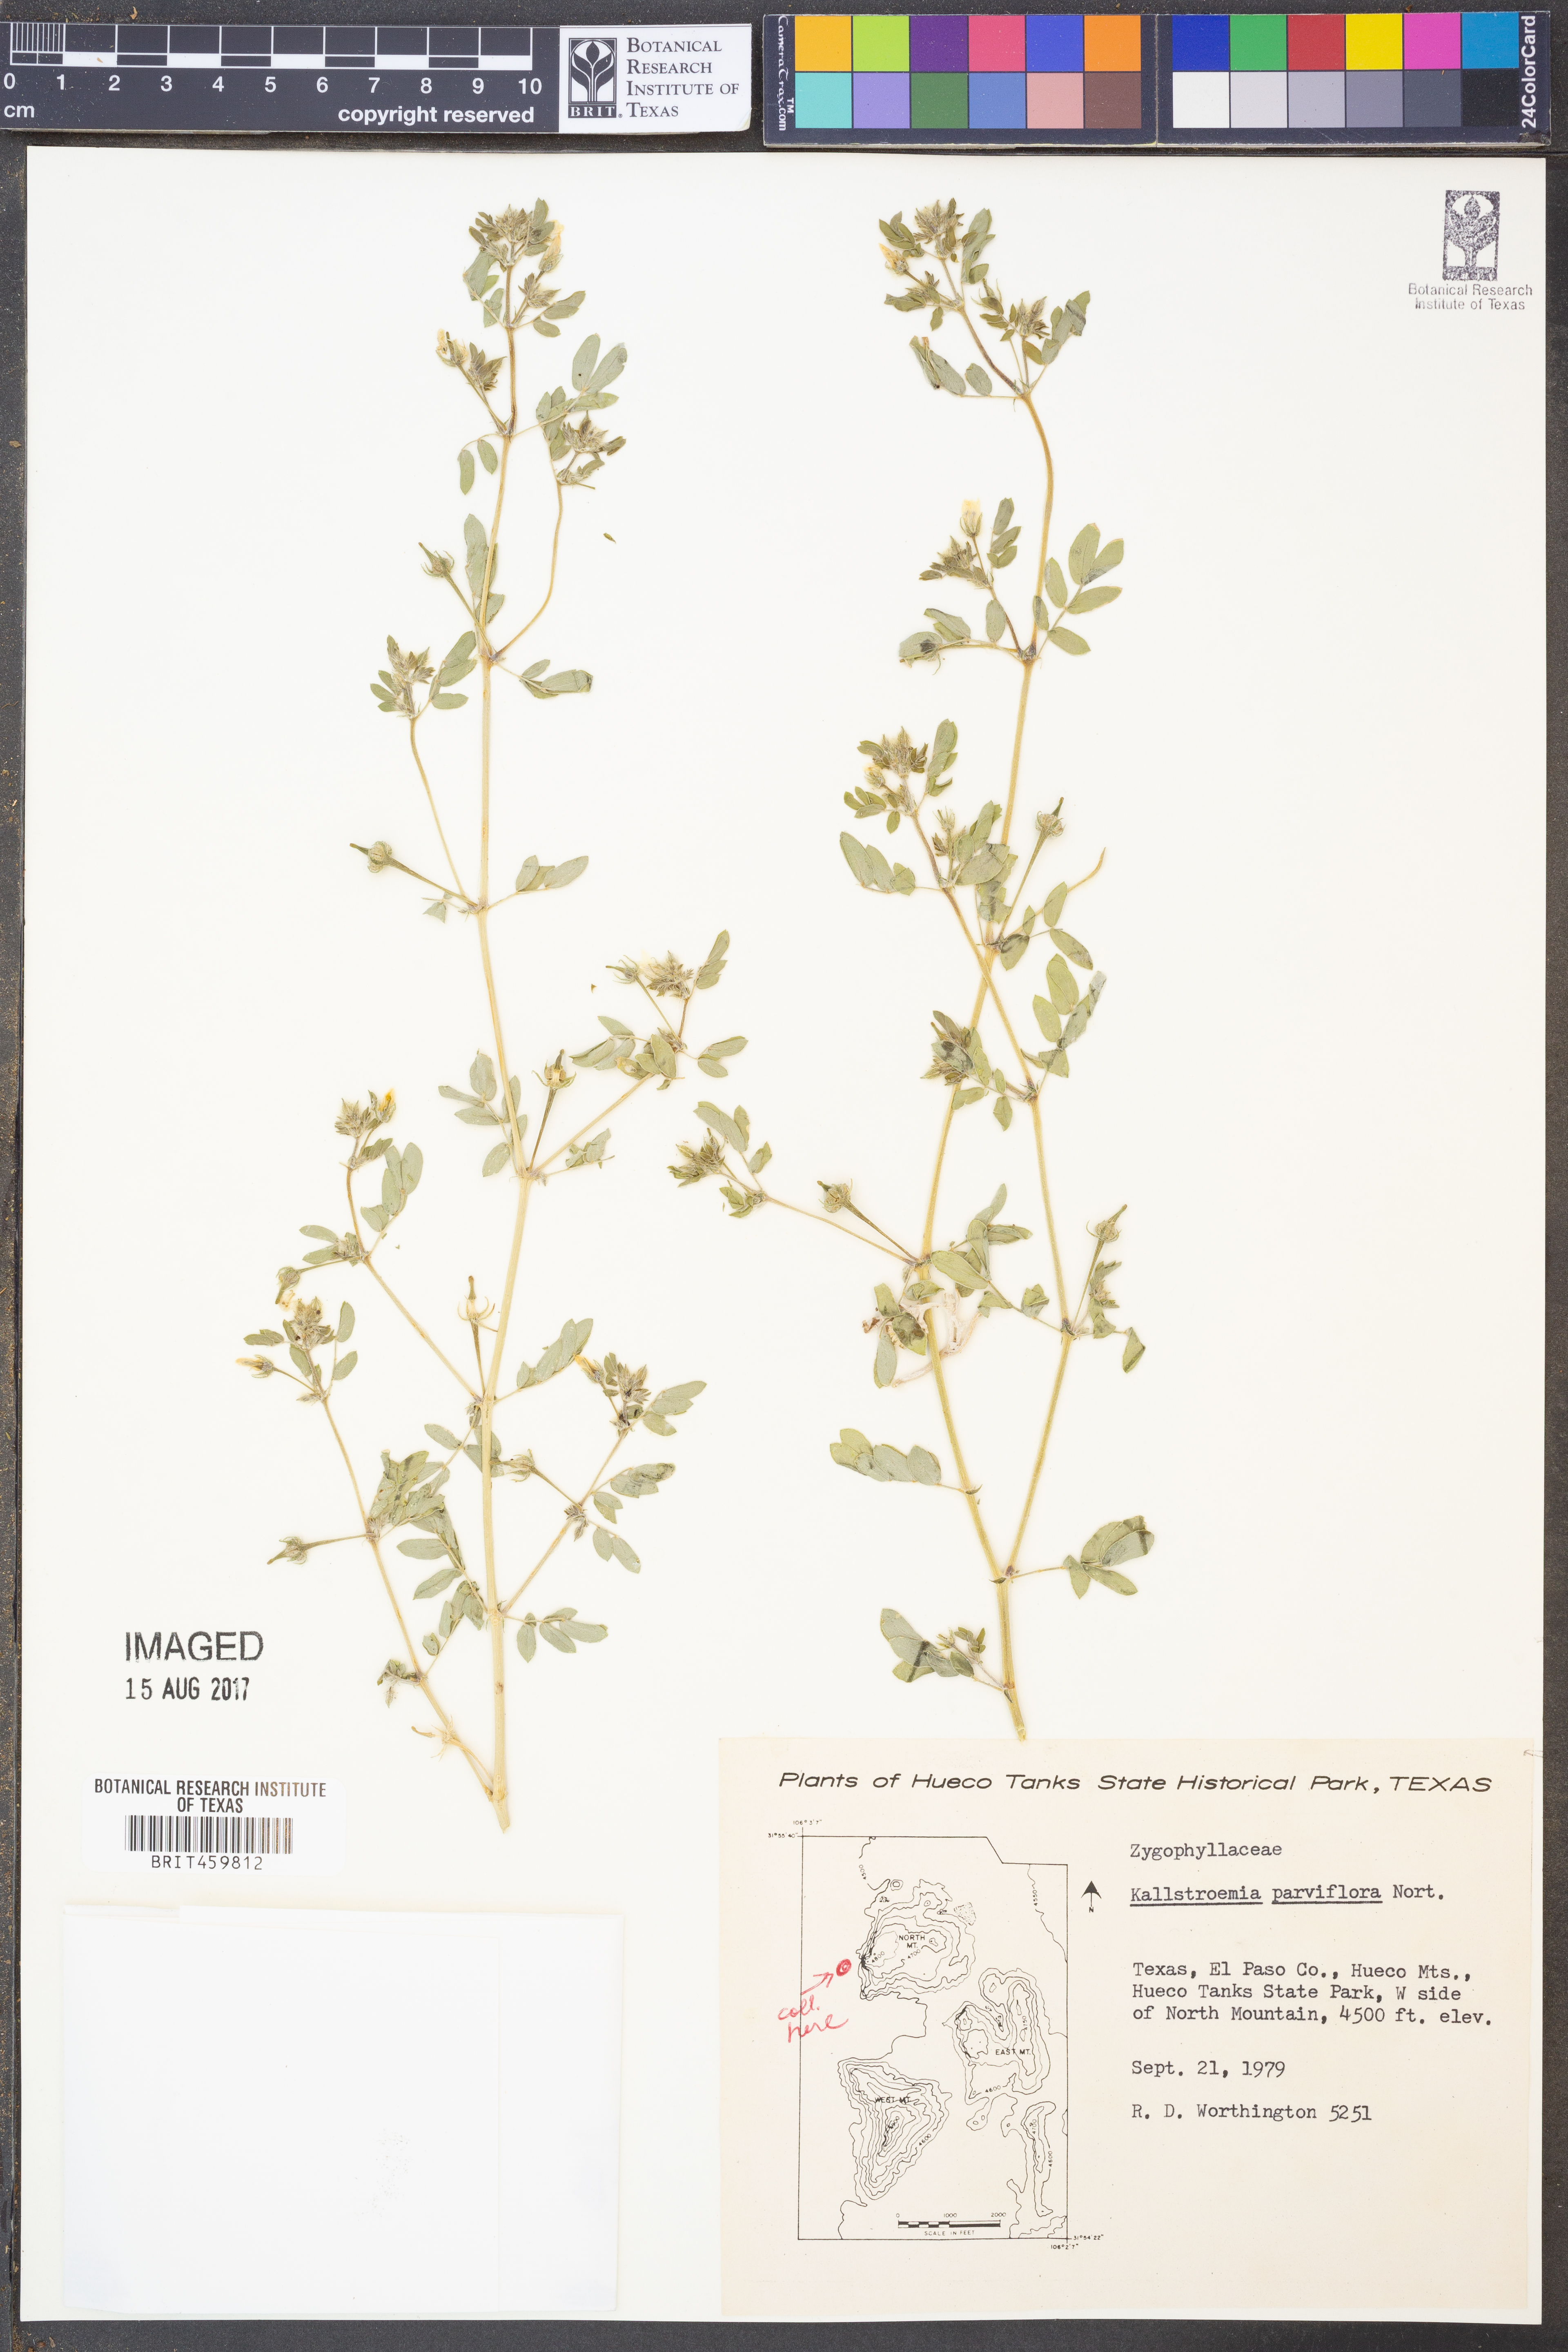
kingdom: Plantae
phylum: Tracheophyta
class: Magnoliopsida
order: Zygophyllales
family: Zygophyllaceae
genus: Kallstroemia
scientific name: Kallstroemia parviflora
